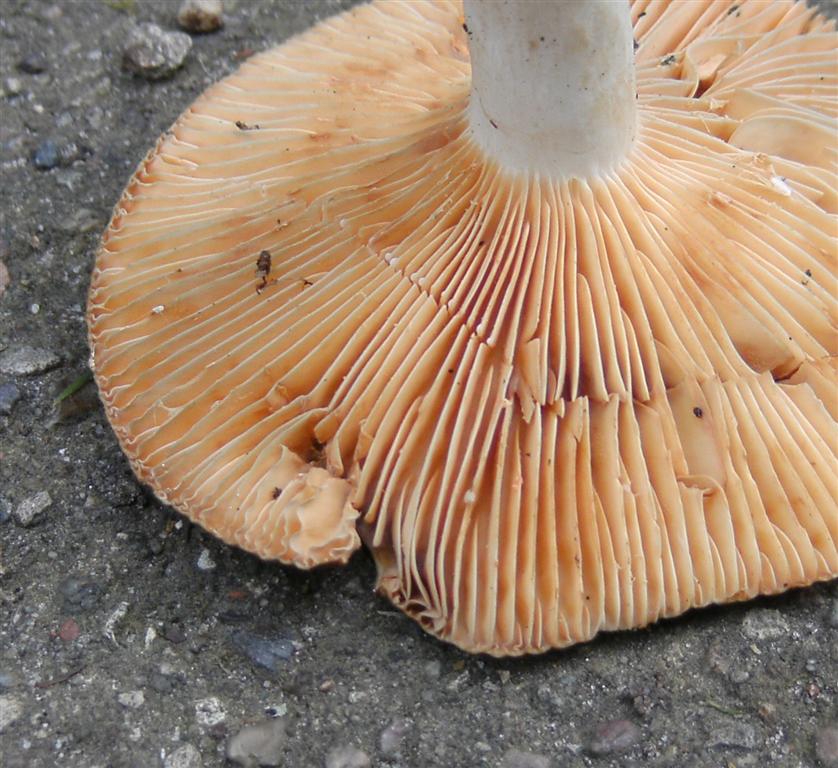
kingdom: Fungi
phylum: Basidiomycota
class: Agaricomycetes
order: Russulales
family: Russulaceae
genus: Lactarius
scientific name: Lactarius acris
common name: rosamælket mælkehat
